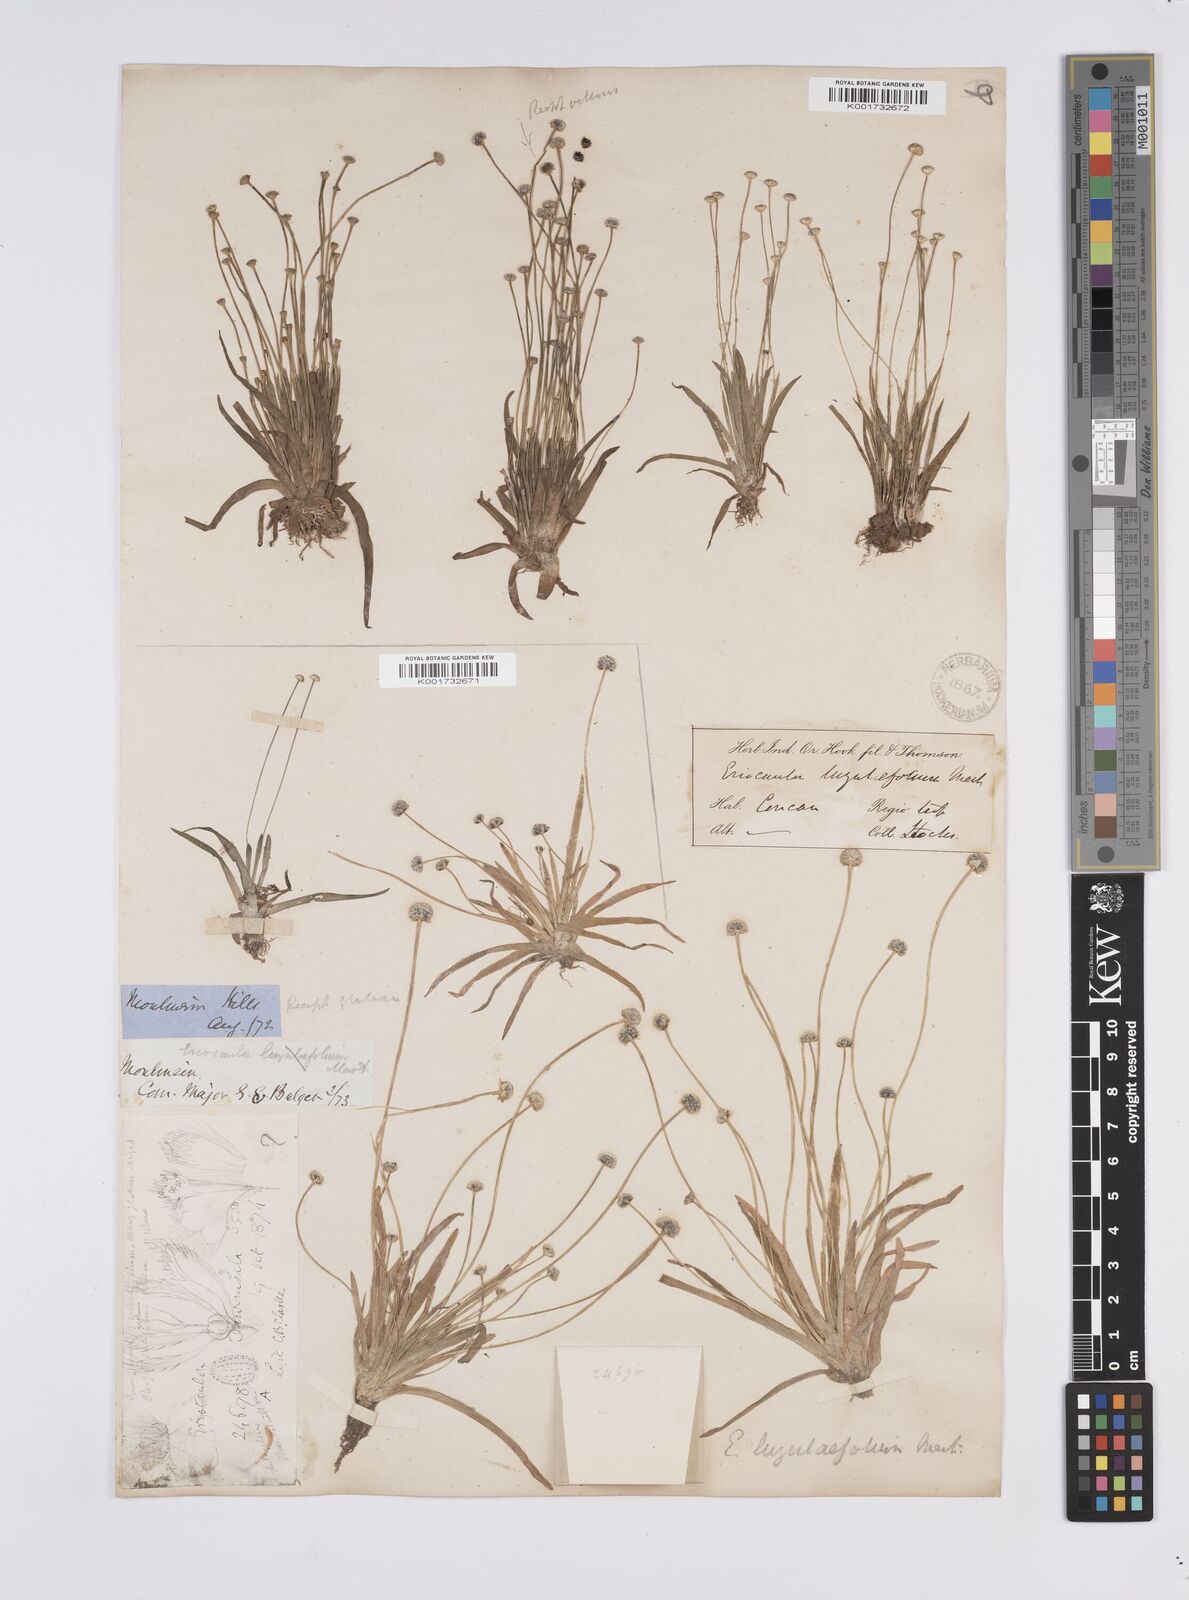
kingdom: Plantae
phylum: Tracheophyta
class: Liliopsida
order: Poales
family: Eriocaulaceae
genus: Eriocaulon
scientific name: Eriocaulon nepalense
